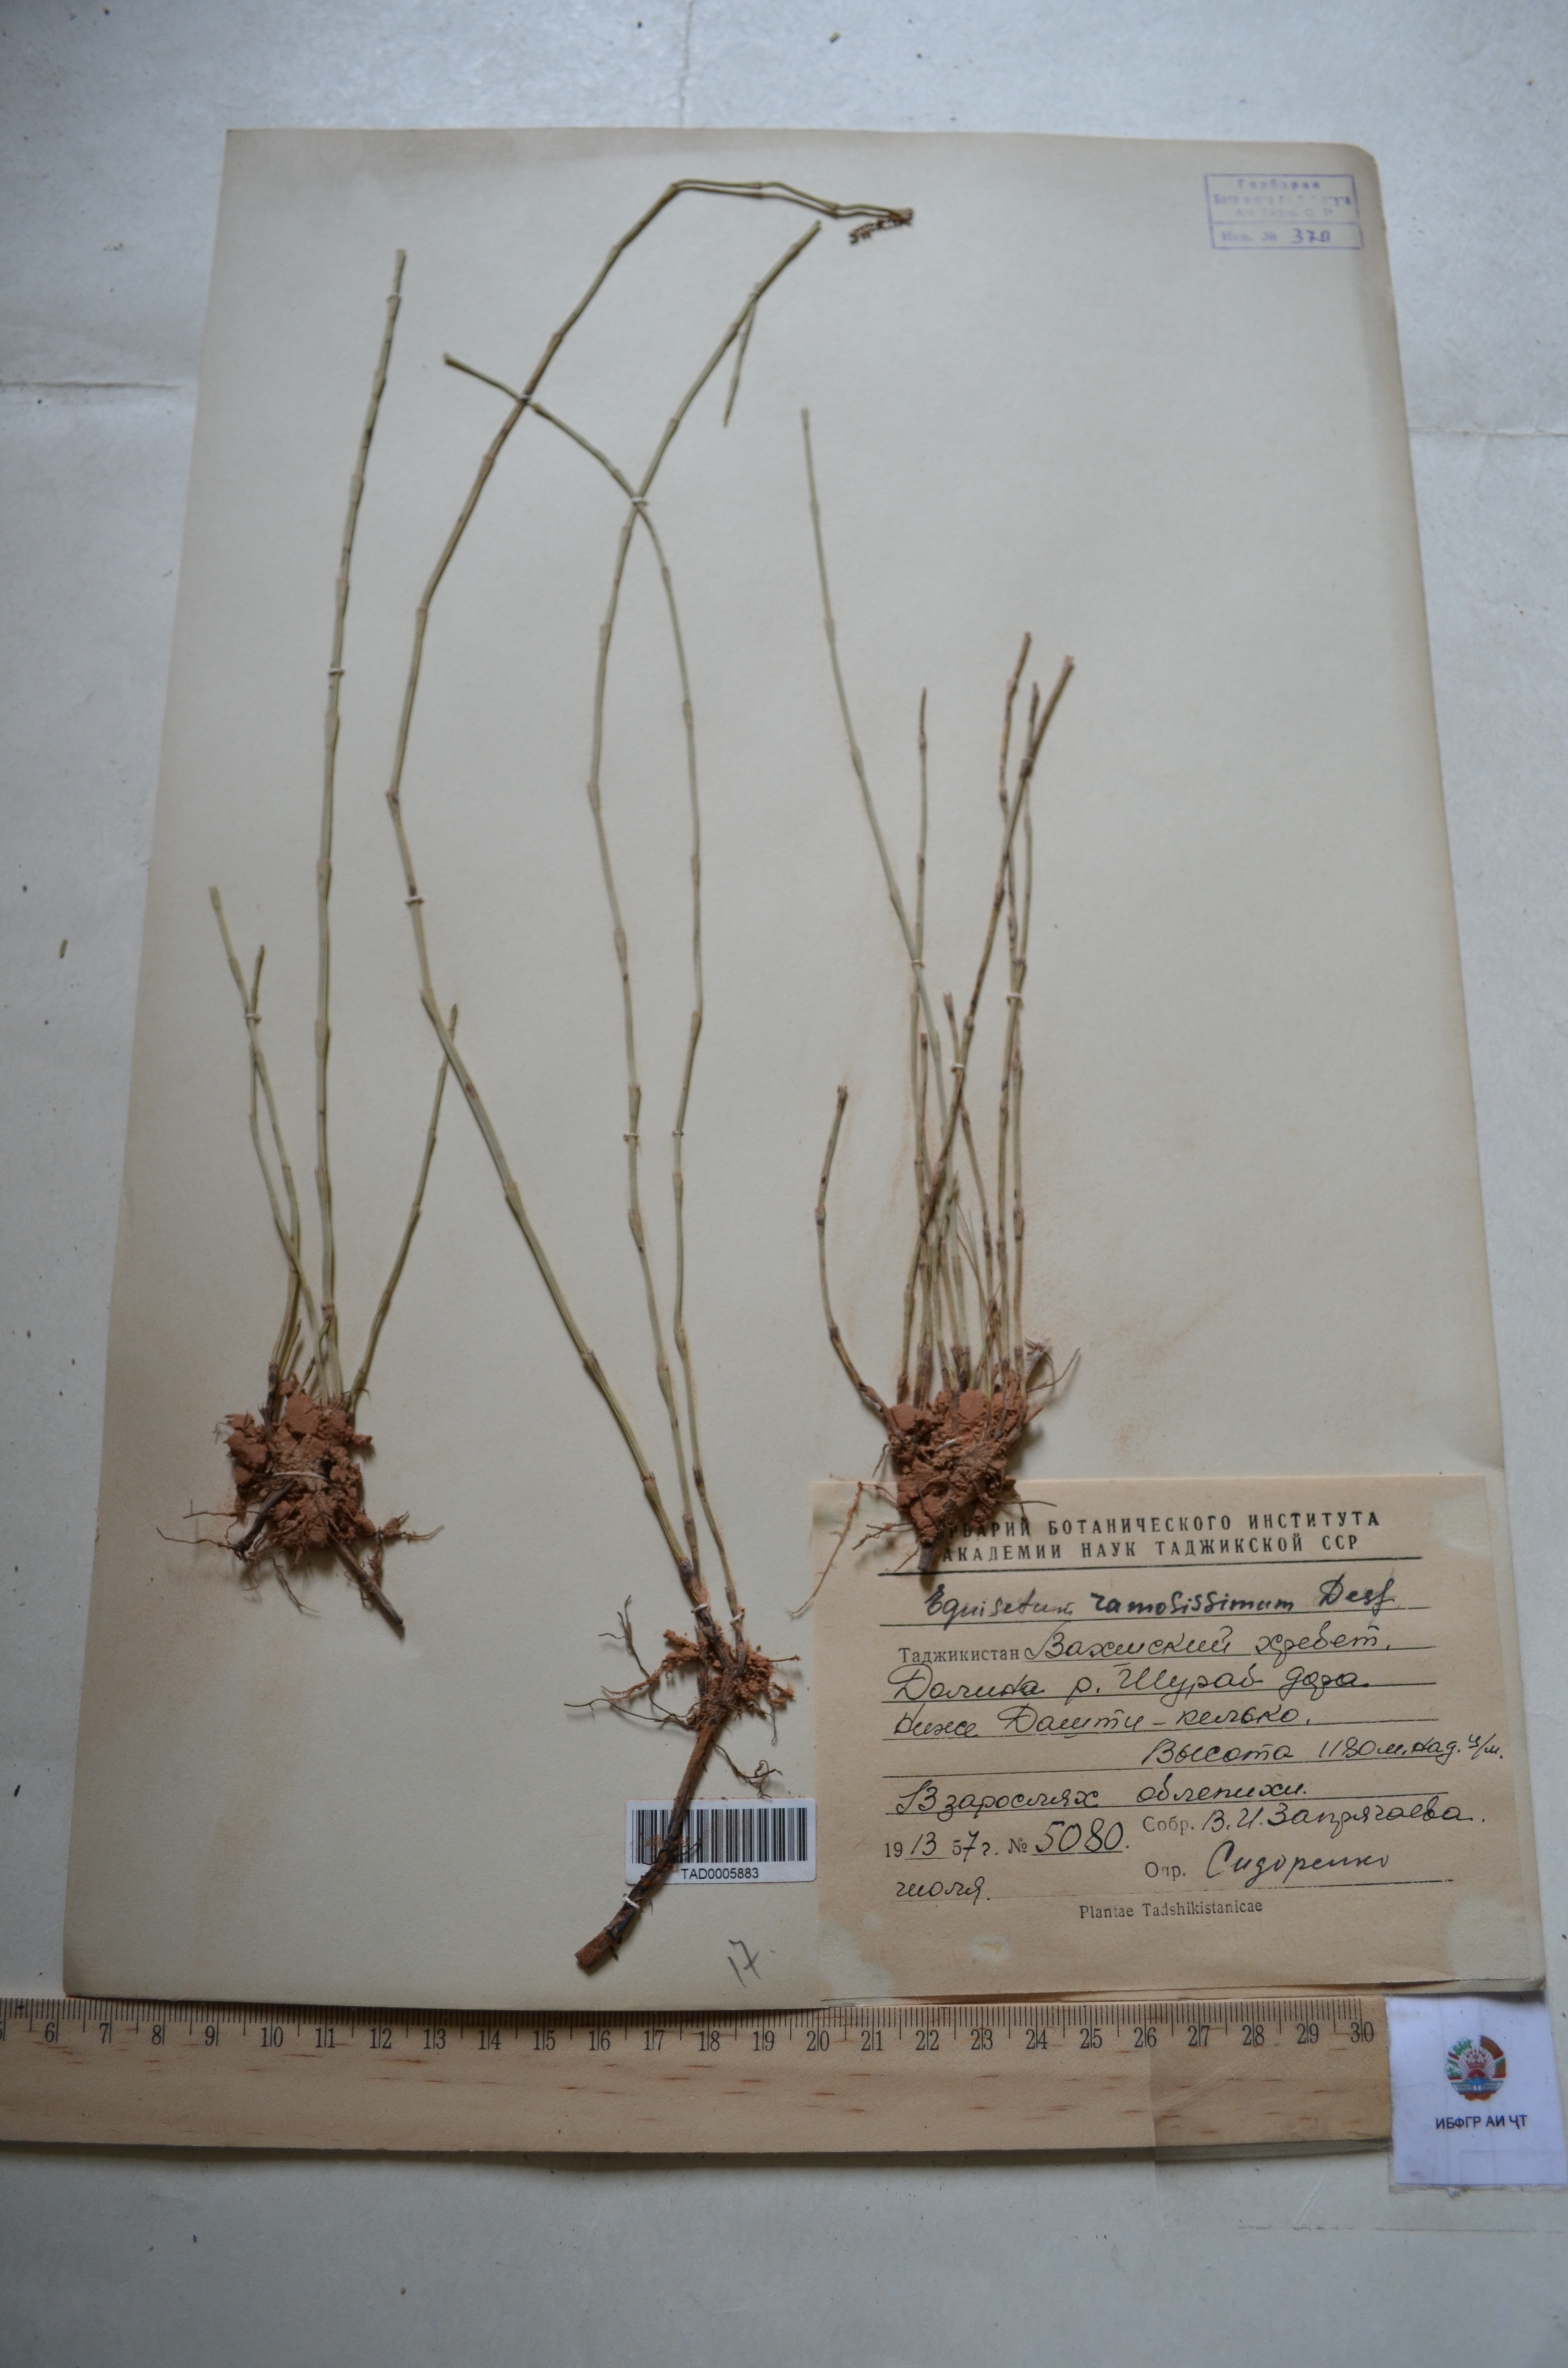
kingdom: Plantae
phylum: Tracheophyta
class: Polypodiopsida
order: Equisetales
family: Equisetaceae
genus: Equisetum
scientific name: Equisetum ramosissimum
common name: Branched horsetail
